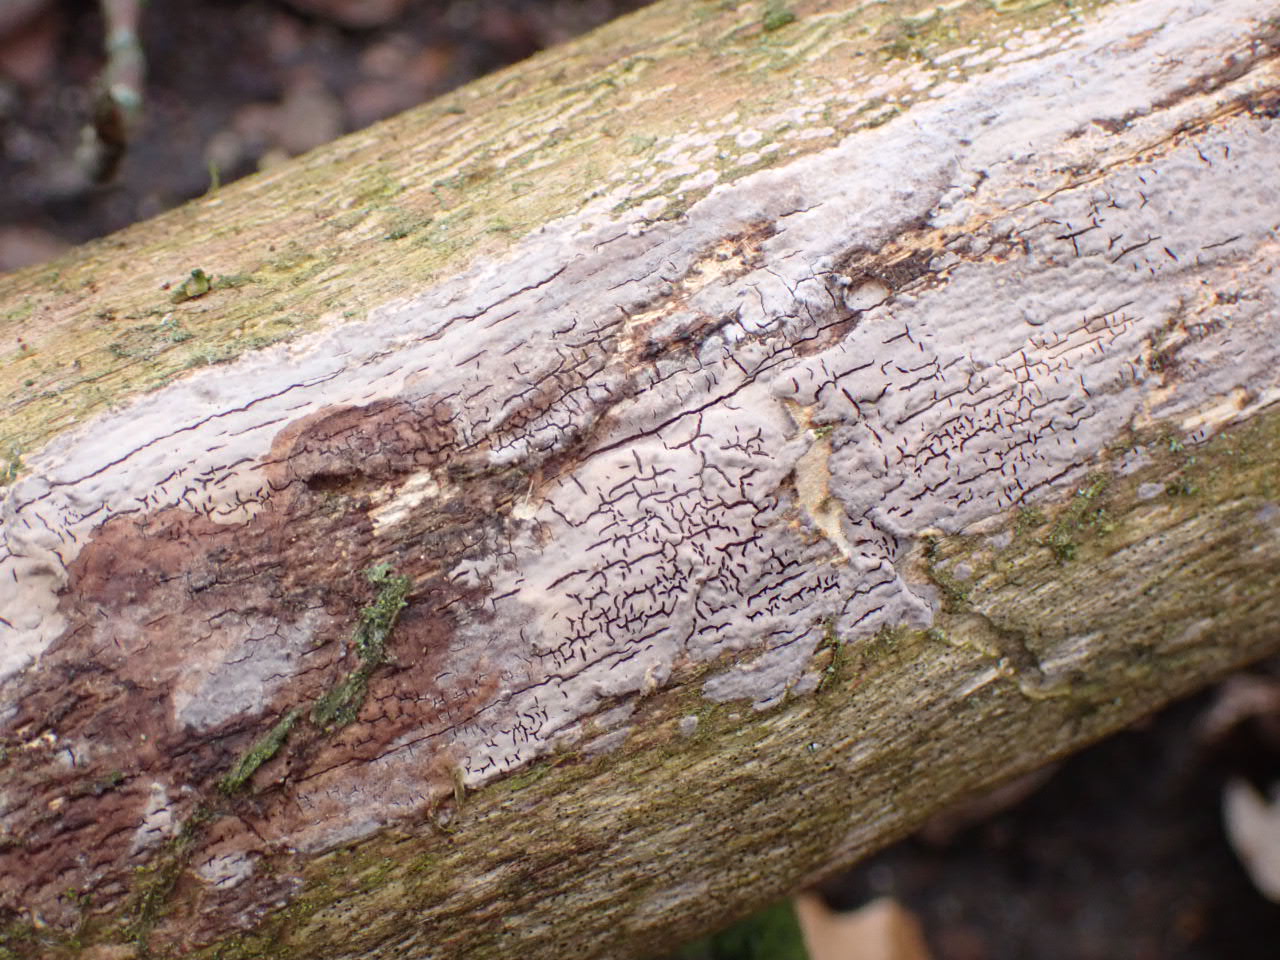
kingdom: Fungi
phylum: Basidiomycota
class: Agaricomycetes
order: Russulales
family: Peniophoraceae
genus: Peniophora
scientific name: Peniophora
